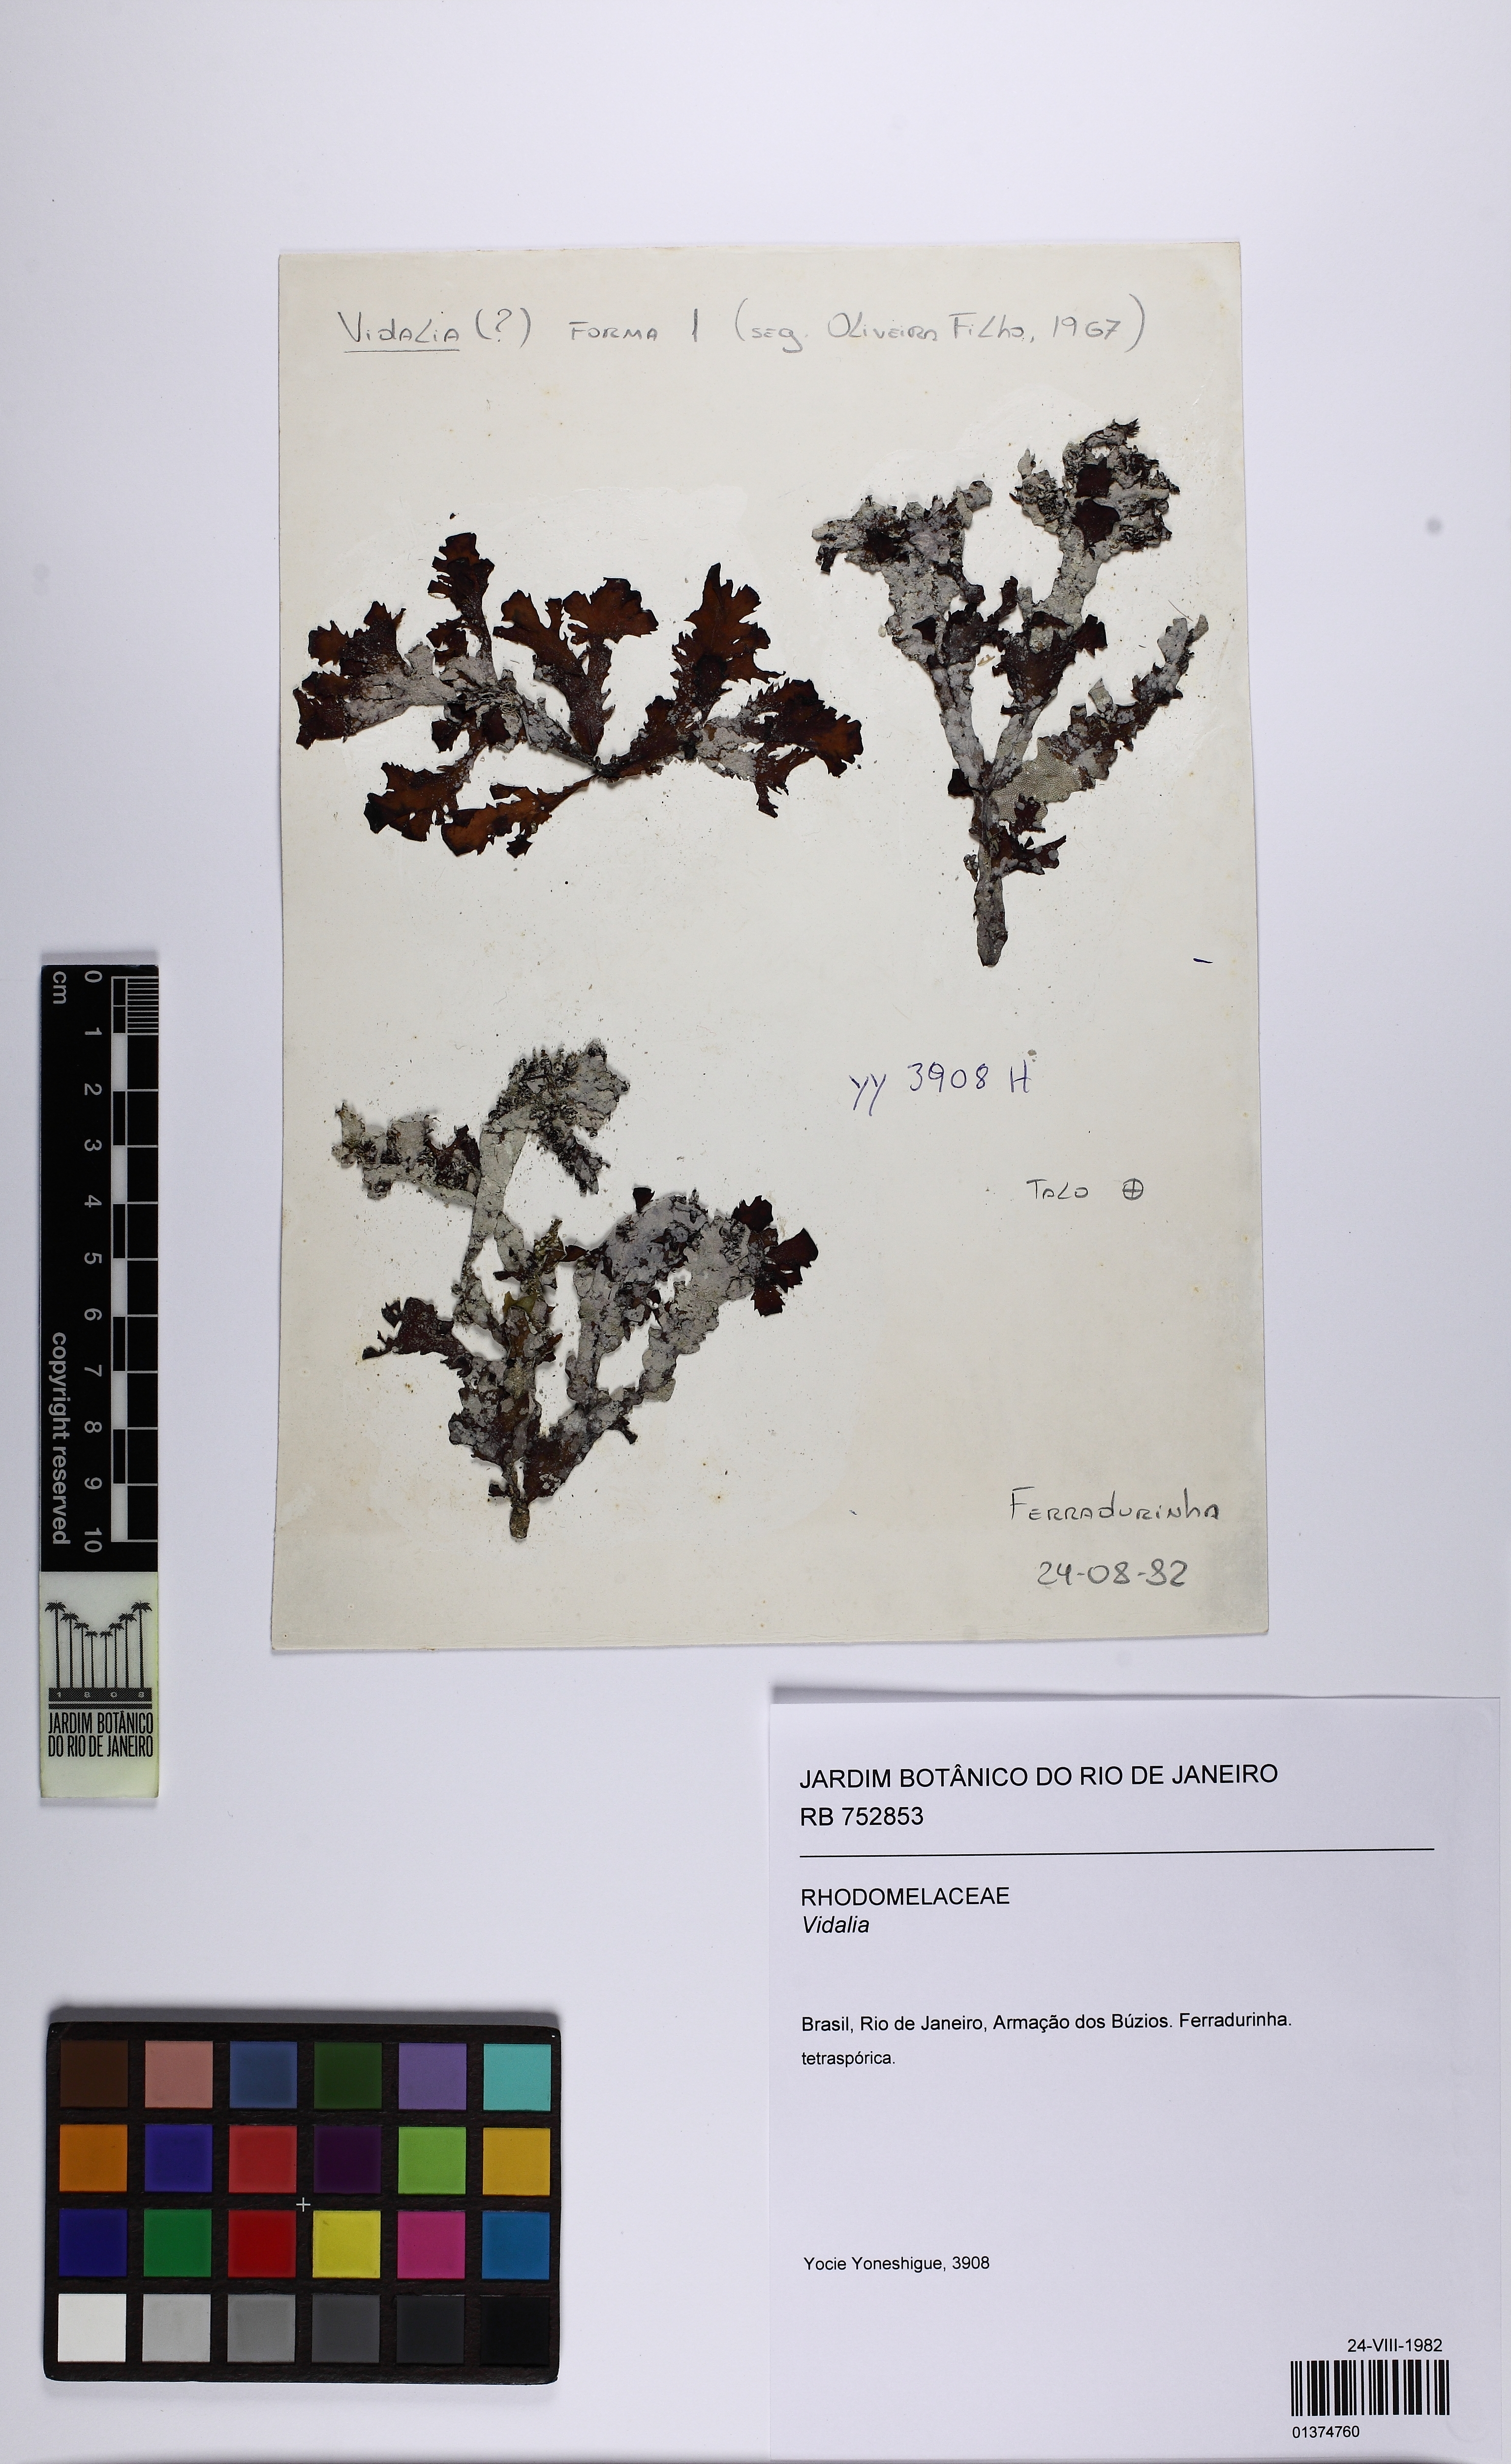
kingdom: Plantae
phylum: Rhodophyta
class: Florideophyceae
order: Ceramiales
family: Rhodomelaceae
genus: Vidalia
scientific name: Vidalia
